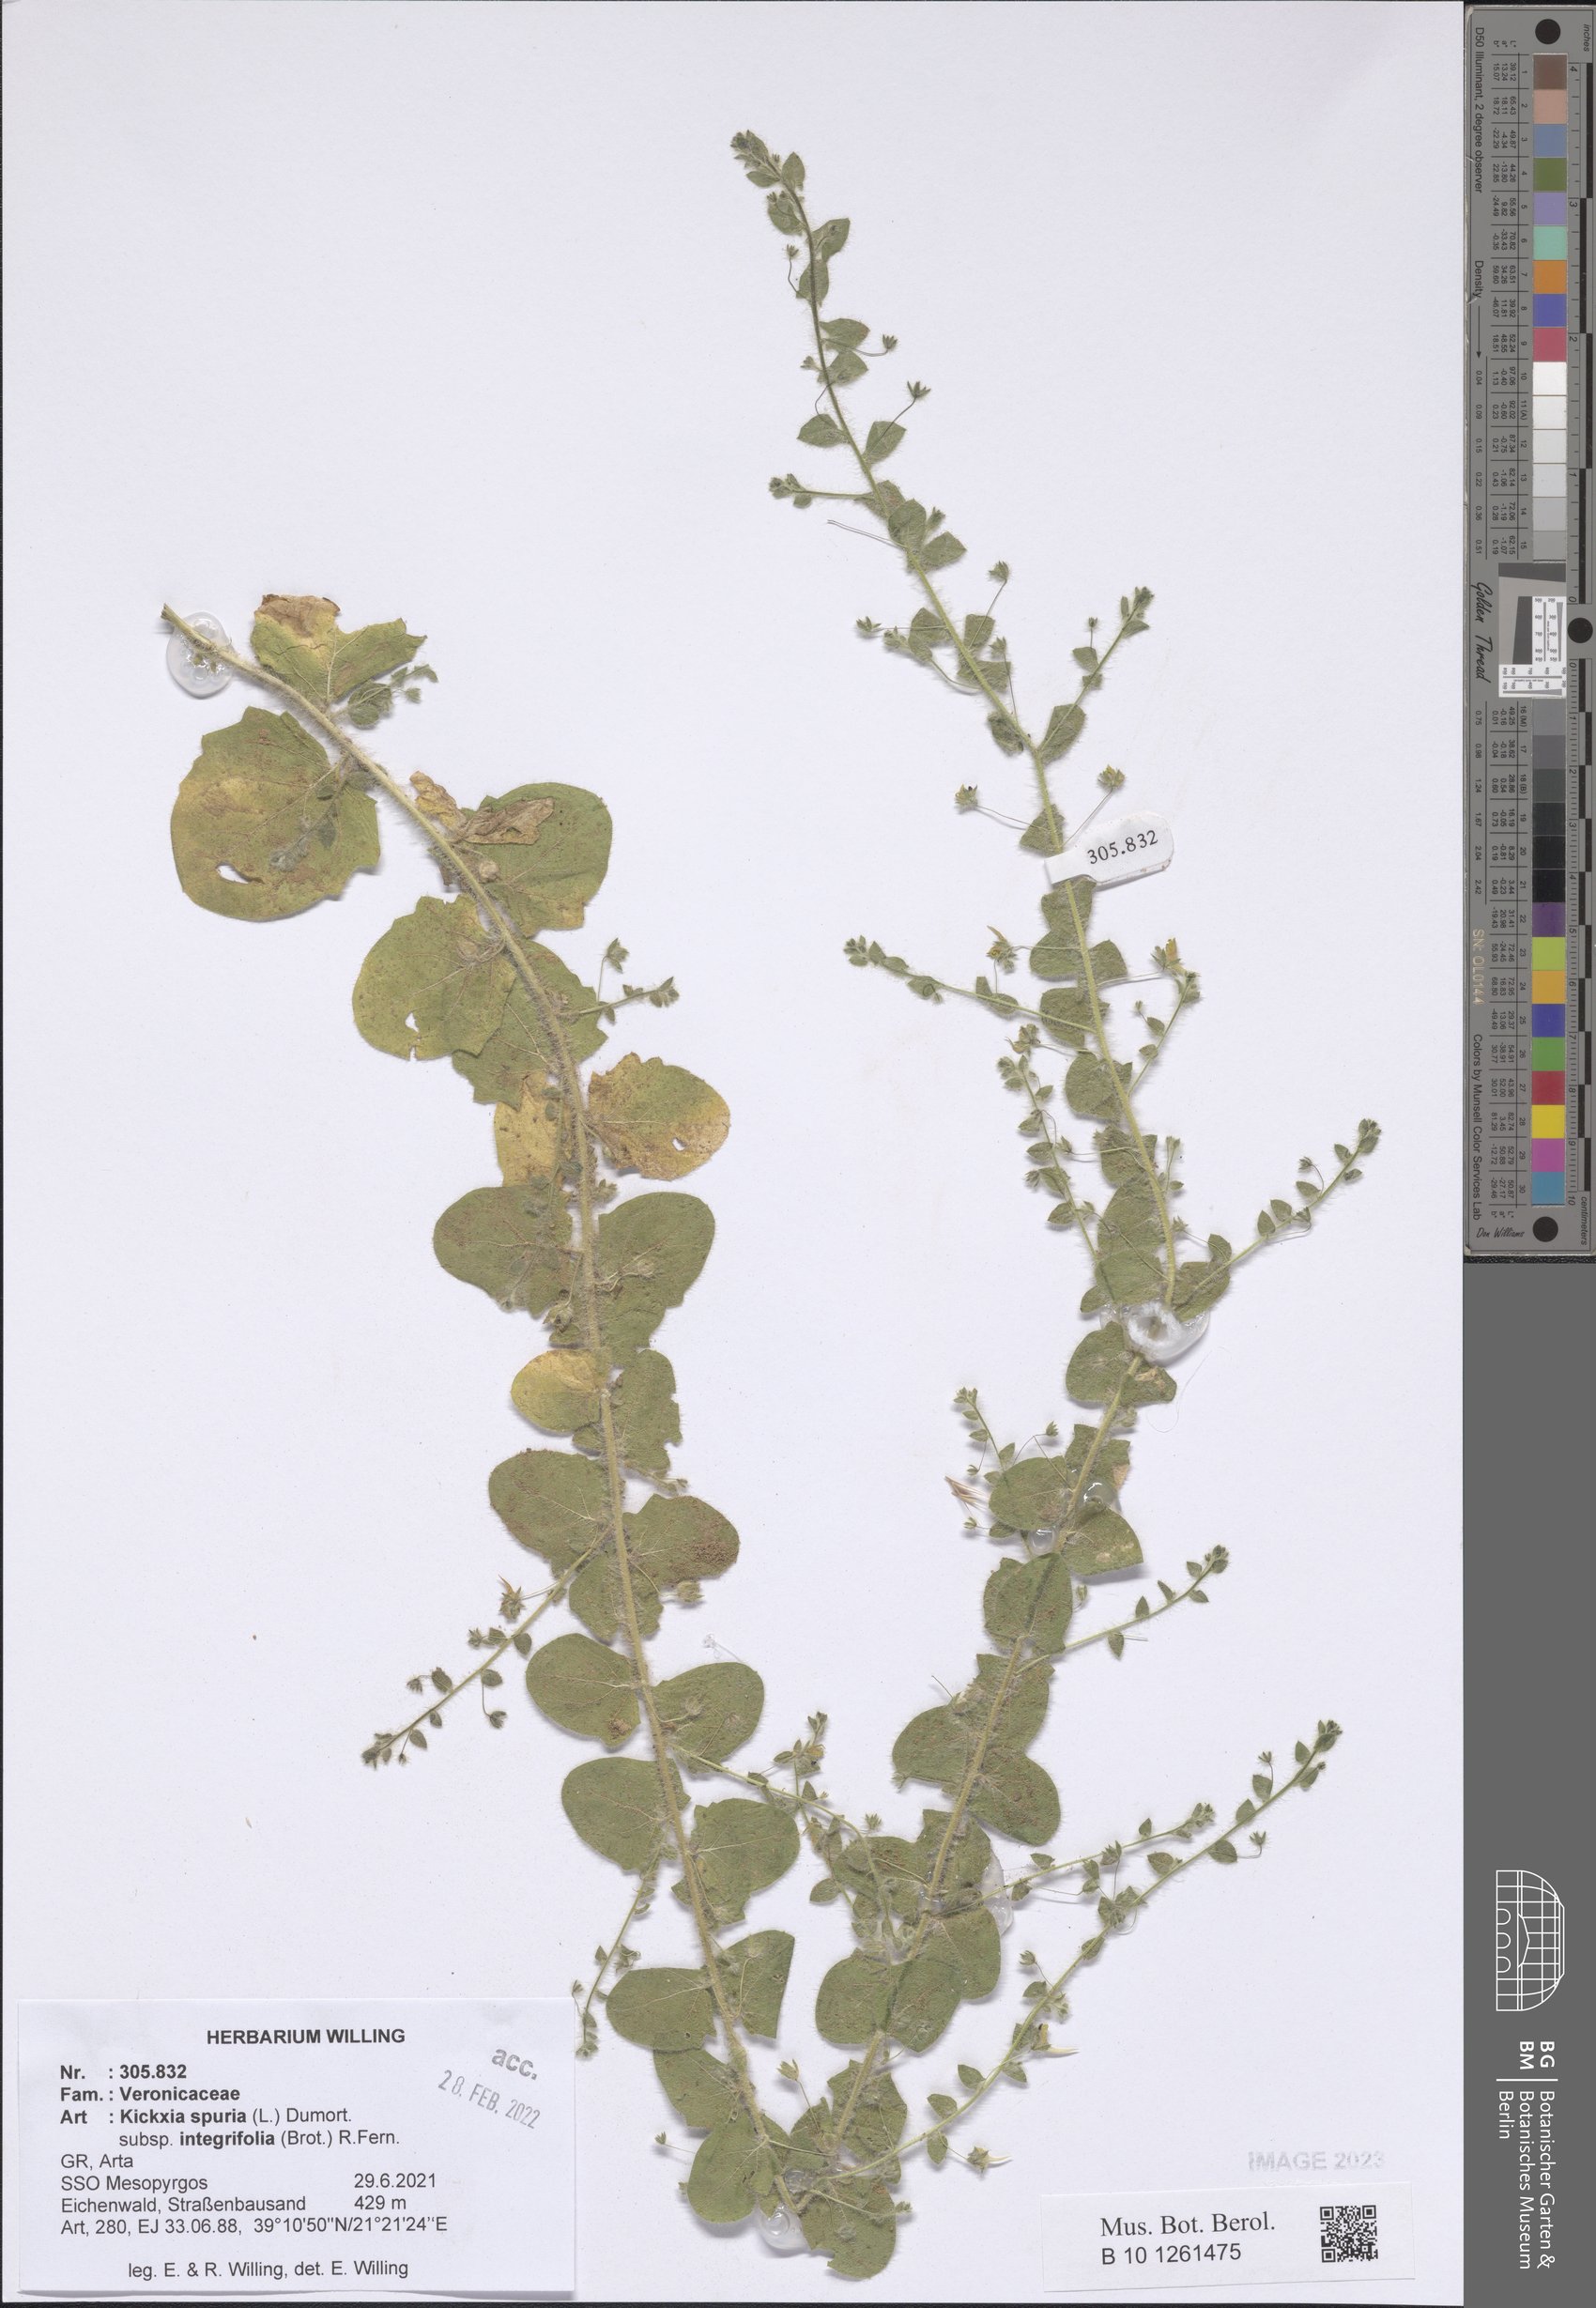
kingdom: Plantae
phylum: Tracheophyta
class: Magnoliopsida
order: Lamiales
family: Plantaginaceae
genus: Kickxia
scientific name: Kickxia spuria
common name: Round-leaved fluellen
